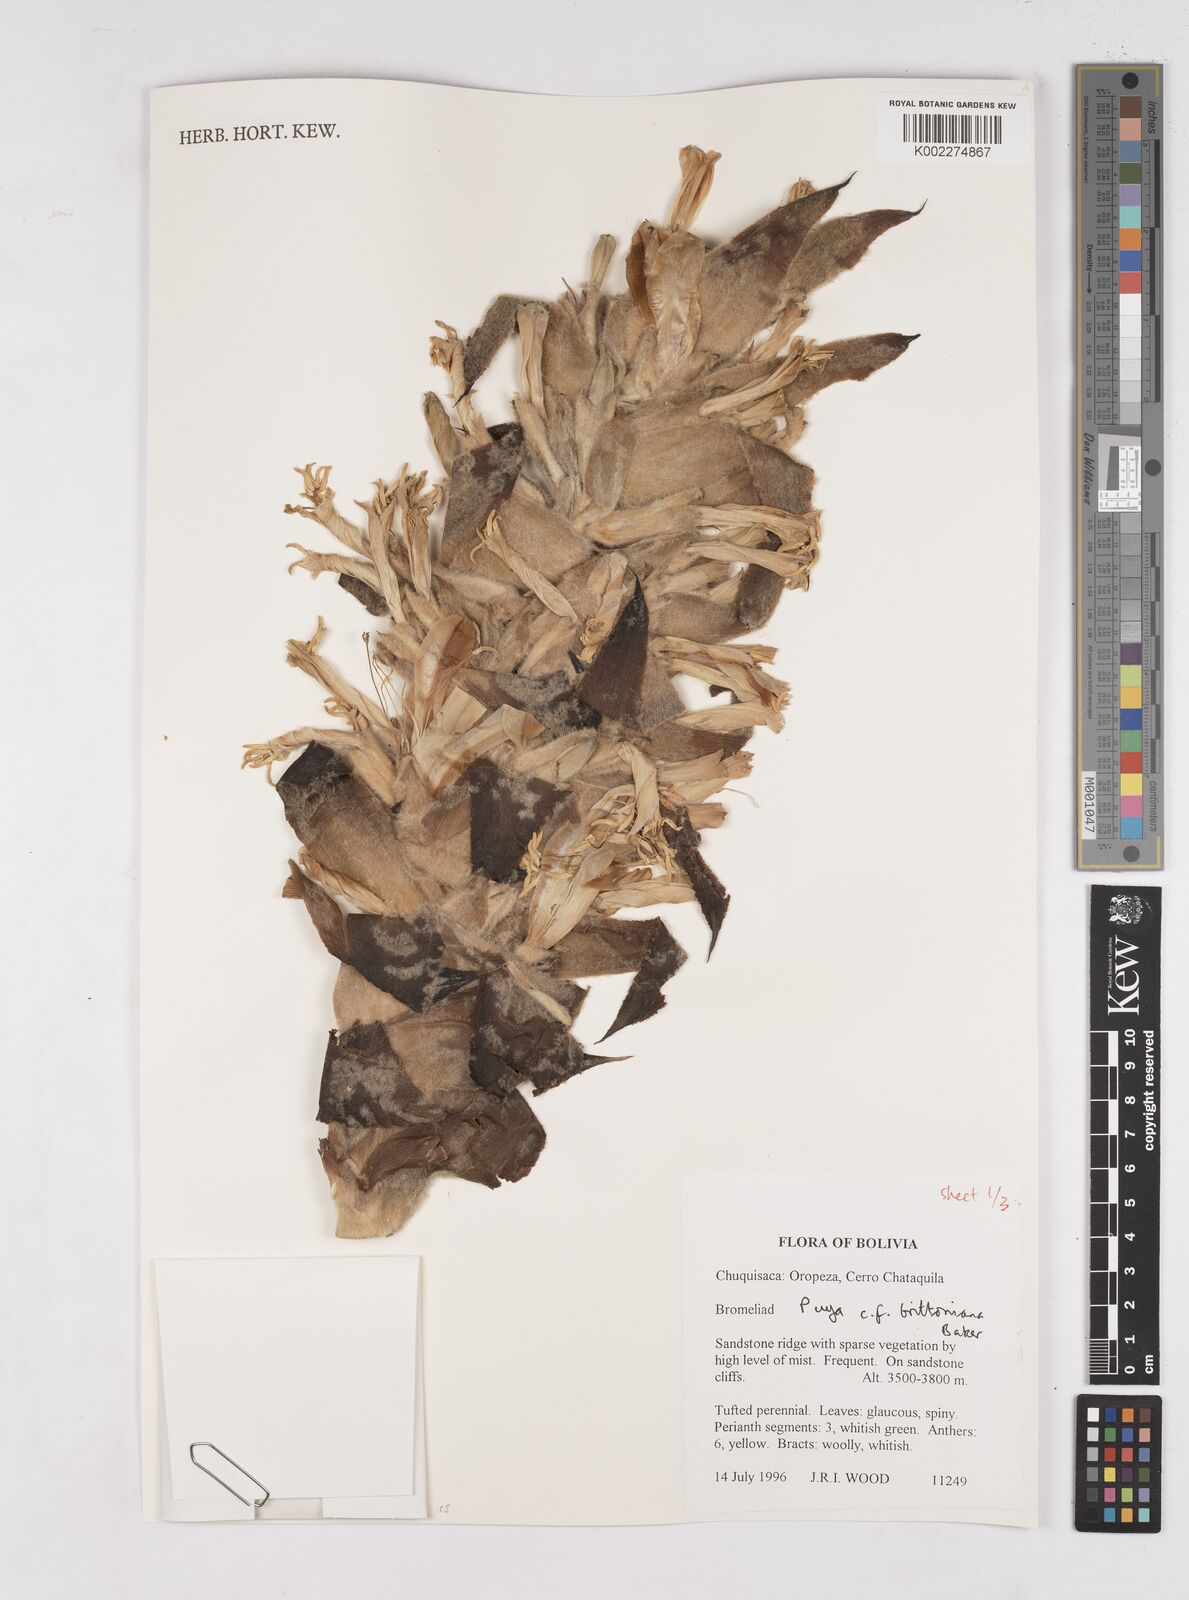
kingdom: Plantae
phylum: Tracheophyta
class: Liliopsida
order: Poales
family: Bromeliaceae
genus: Puya
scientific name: Puya brittoniana
